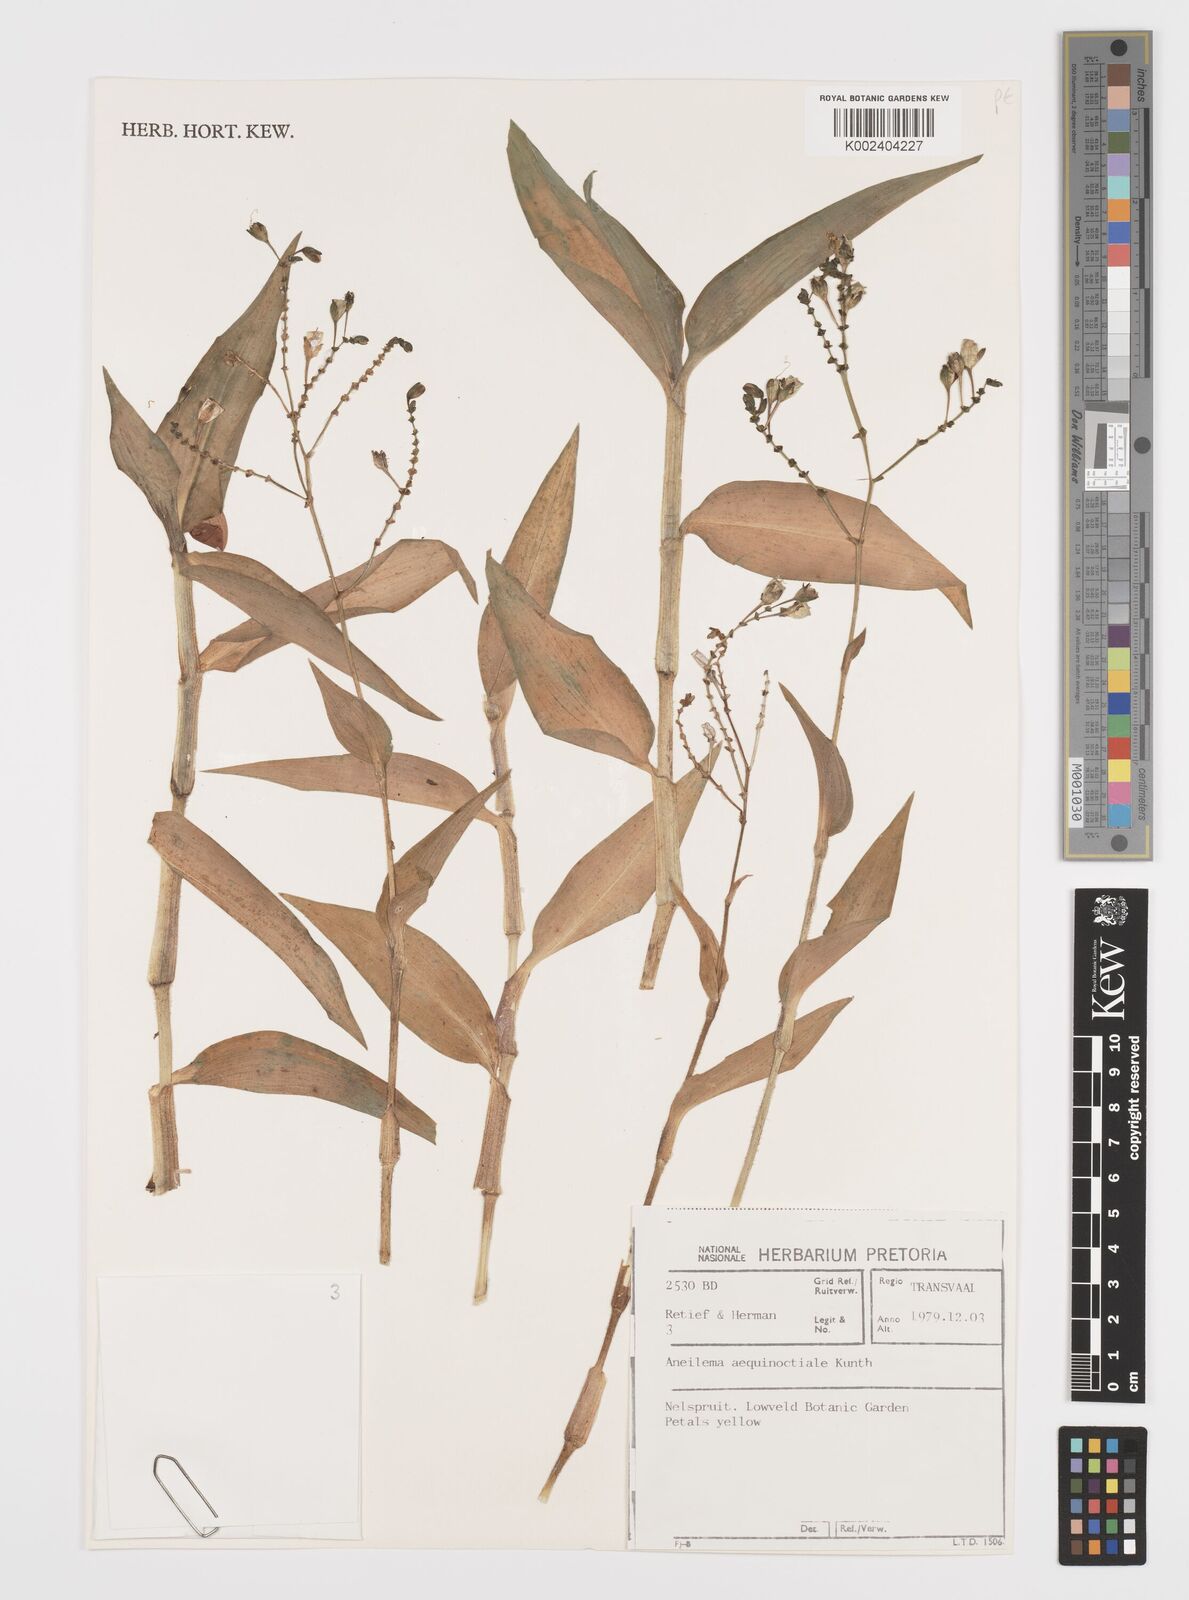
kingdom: Plantae
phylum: Tracheophyta
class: Liliopsida
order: Commelinales
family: Commelinaceae
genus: Aneilema
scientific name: Aneilema aequinoctiale
